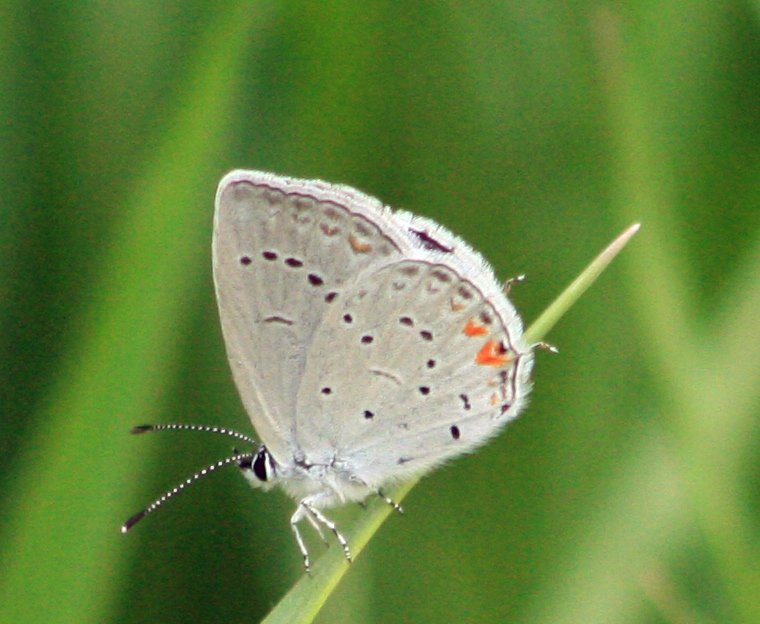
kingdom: Animalia
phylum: Arthropoda
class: Insecta
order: Lepidoptera
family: Lycaenidae
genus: Elkalyce
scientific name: Elkalyce comyntas
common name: Eastern Tailed-Blue
